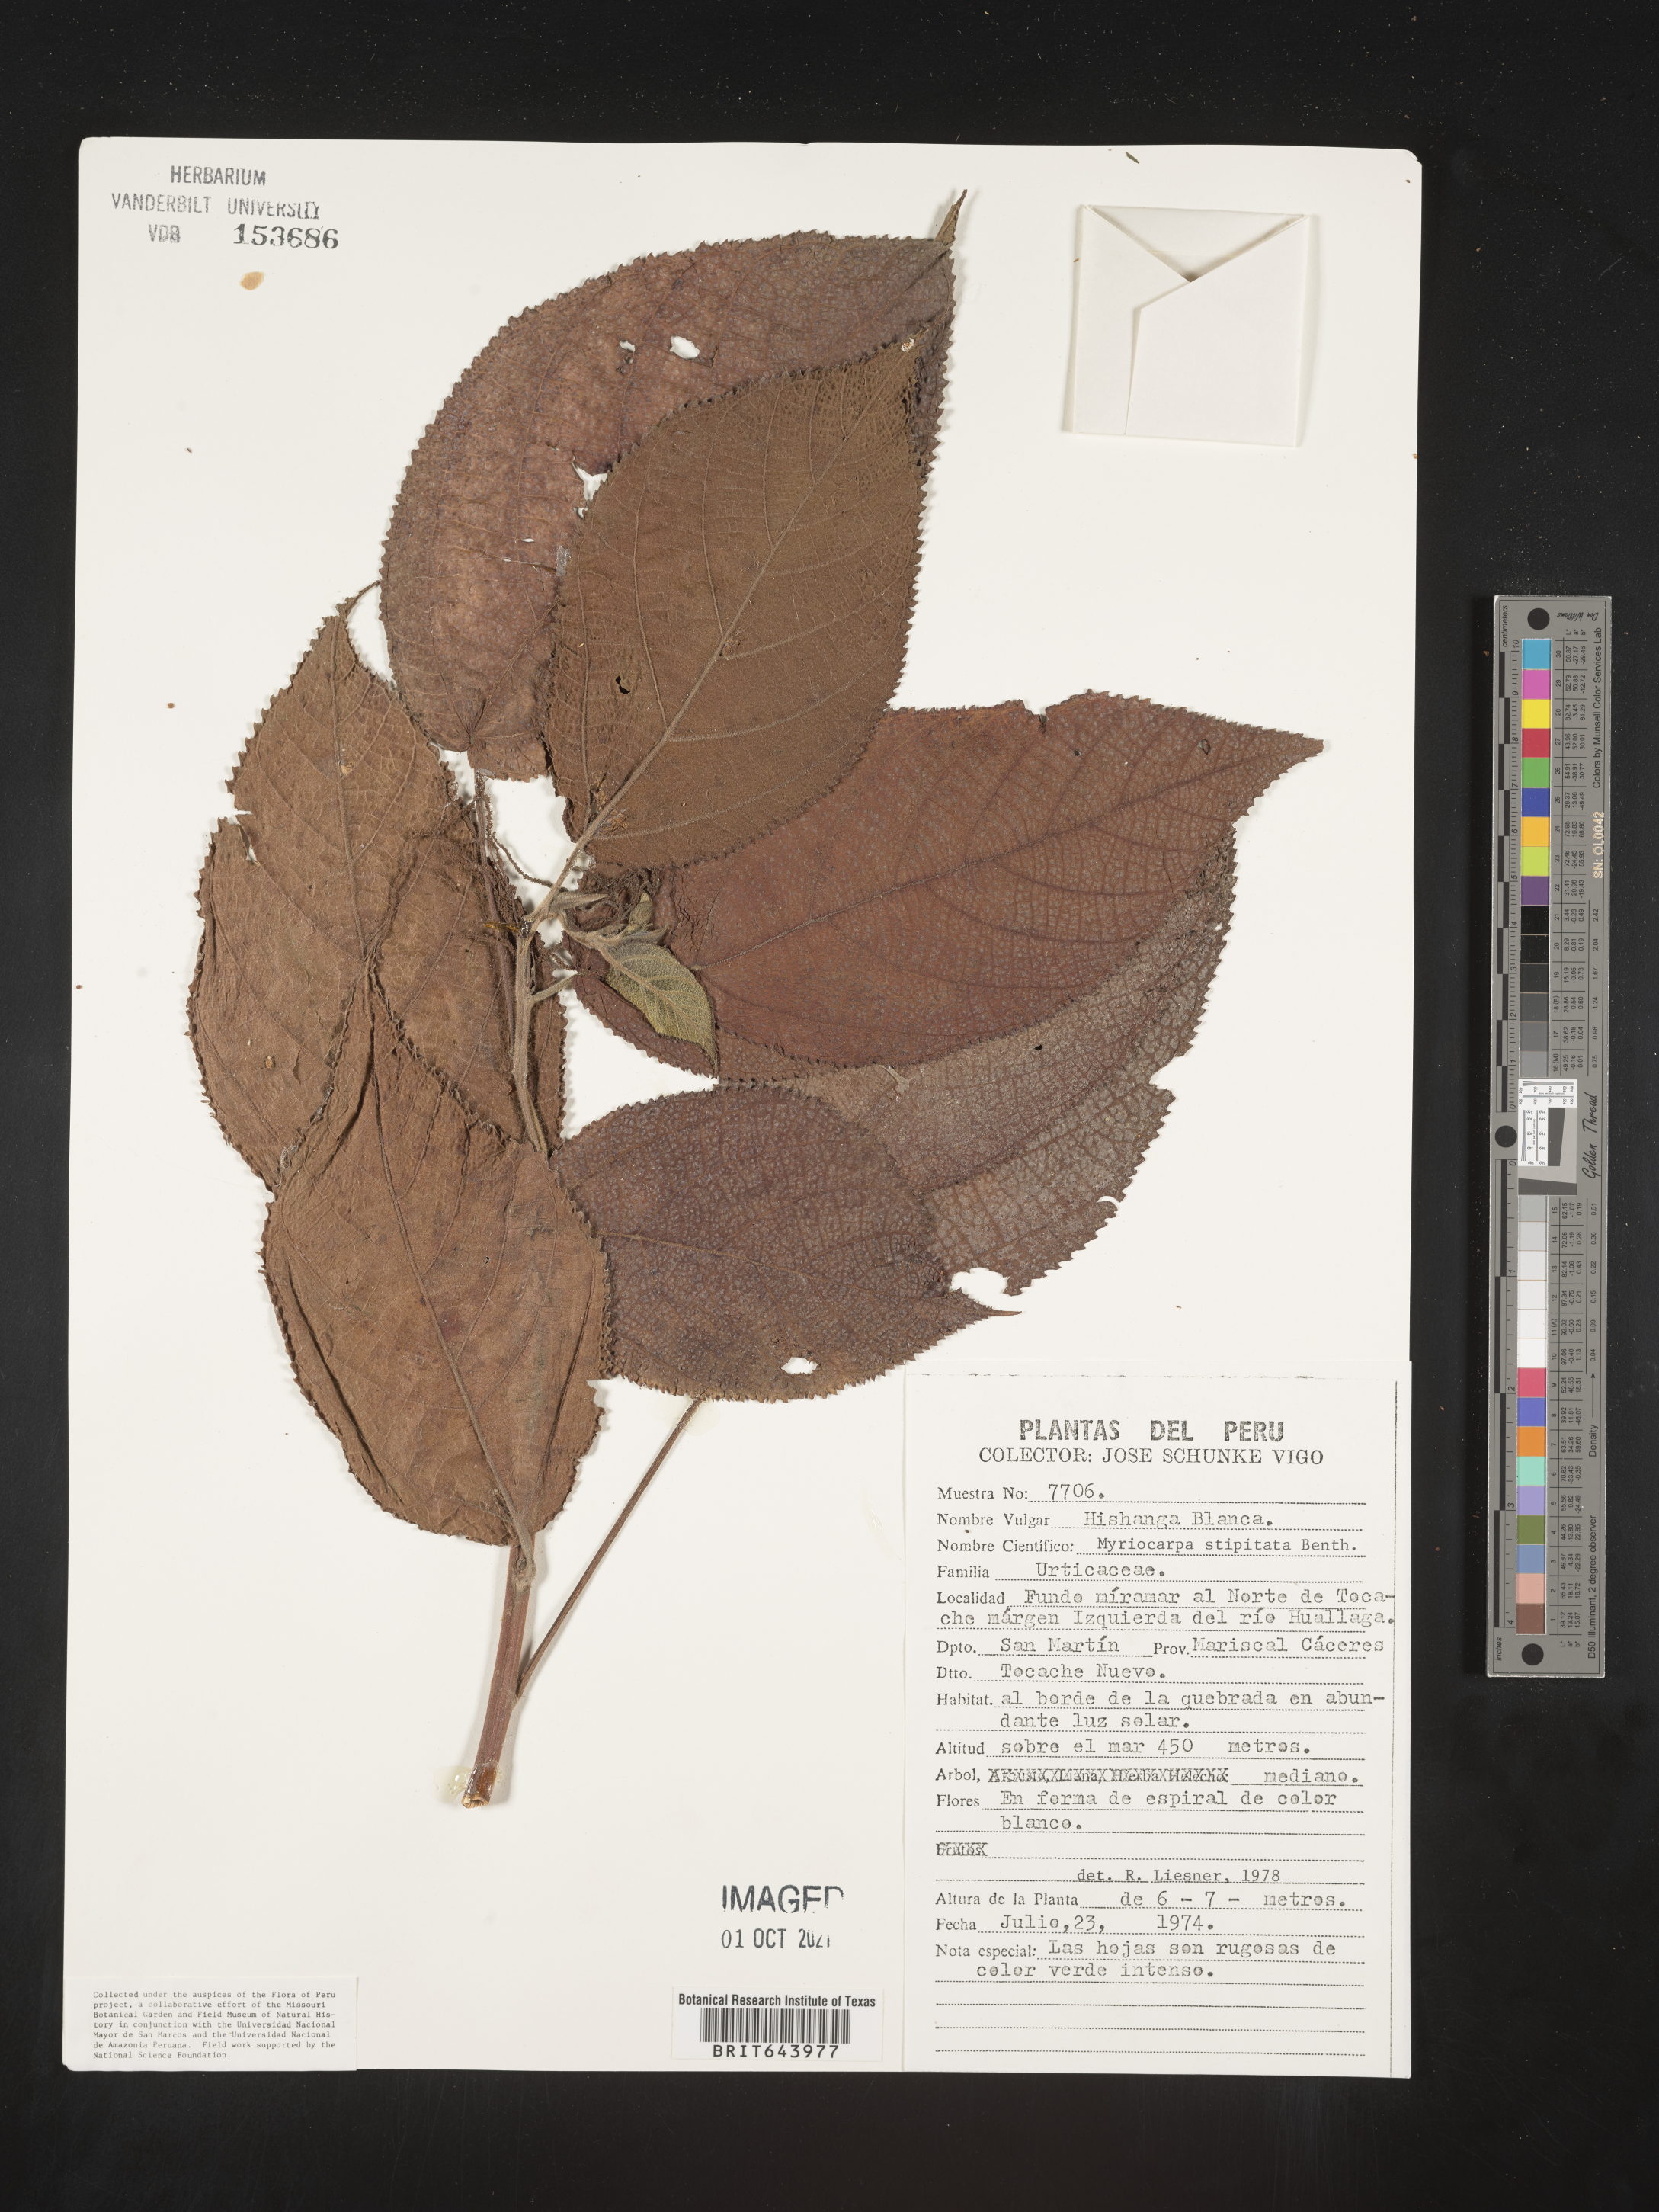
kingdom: Plantae
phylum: Tracheophyta
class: Magnoliopsida
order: Rosales
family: Urticaceae
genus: Myriocarpa
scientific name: Myriocarpa
